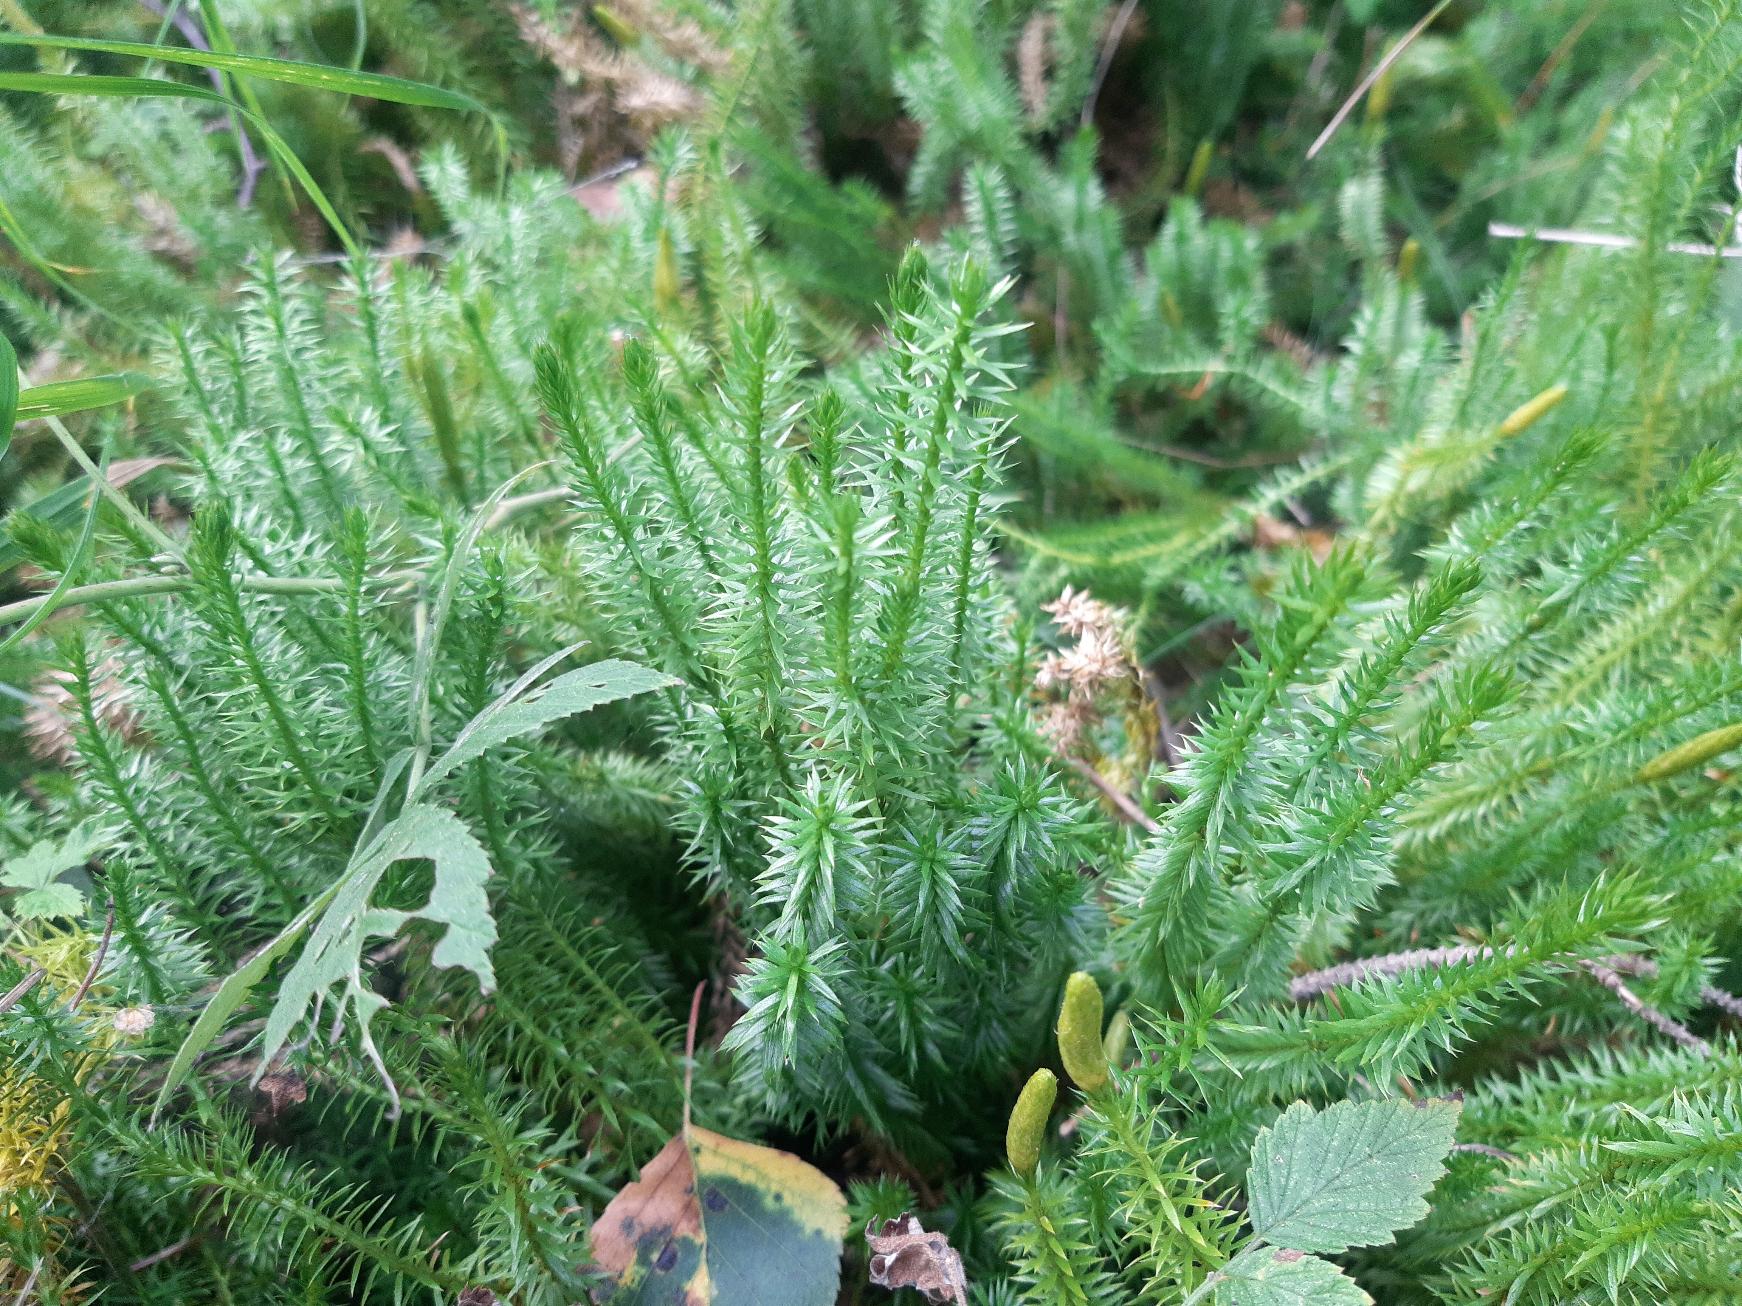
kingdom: Plantae
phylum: Tracheophyta
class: Lycopodiopsida
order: Lycopodiales
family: Lycopodiaceae
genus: Spinulum
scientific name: Spinulum annotinum
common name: Femradet ulvefod
